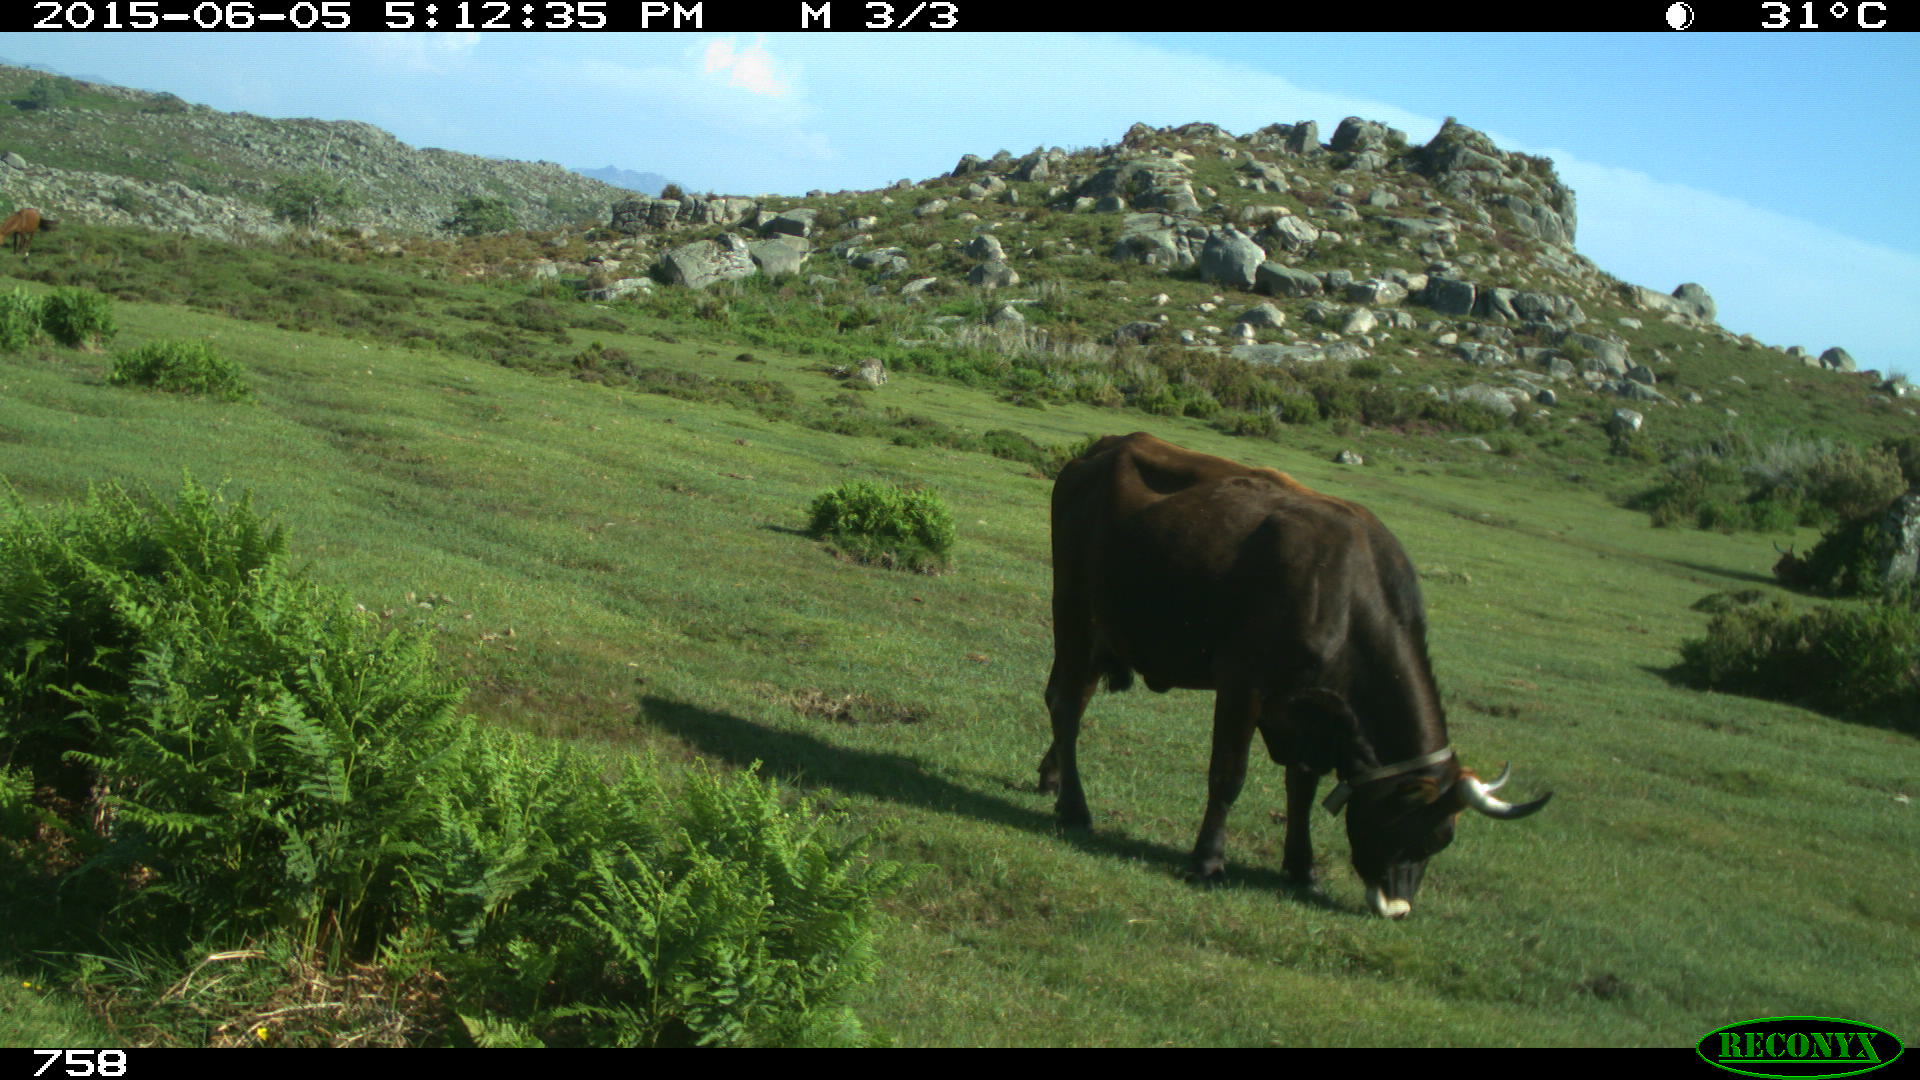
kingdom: Animalia
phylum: Chordata
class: Mammalia
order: Artiodactyla
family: Bovidae
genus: Bos
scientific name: Bos taurus
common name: Domesticated cattle
